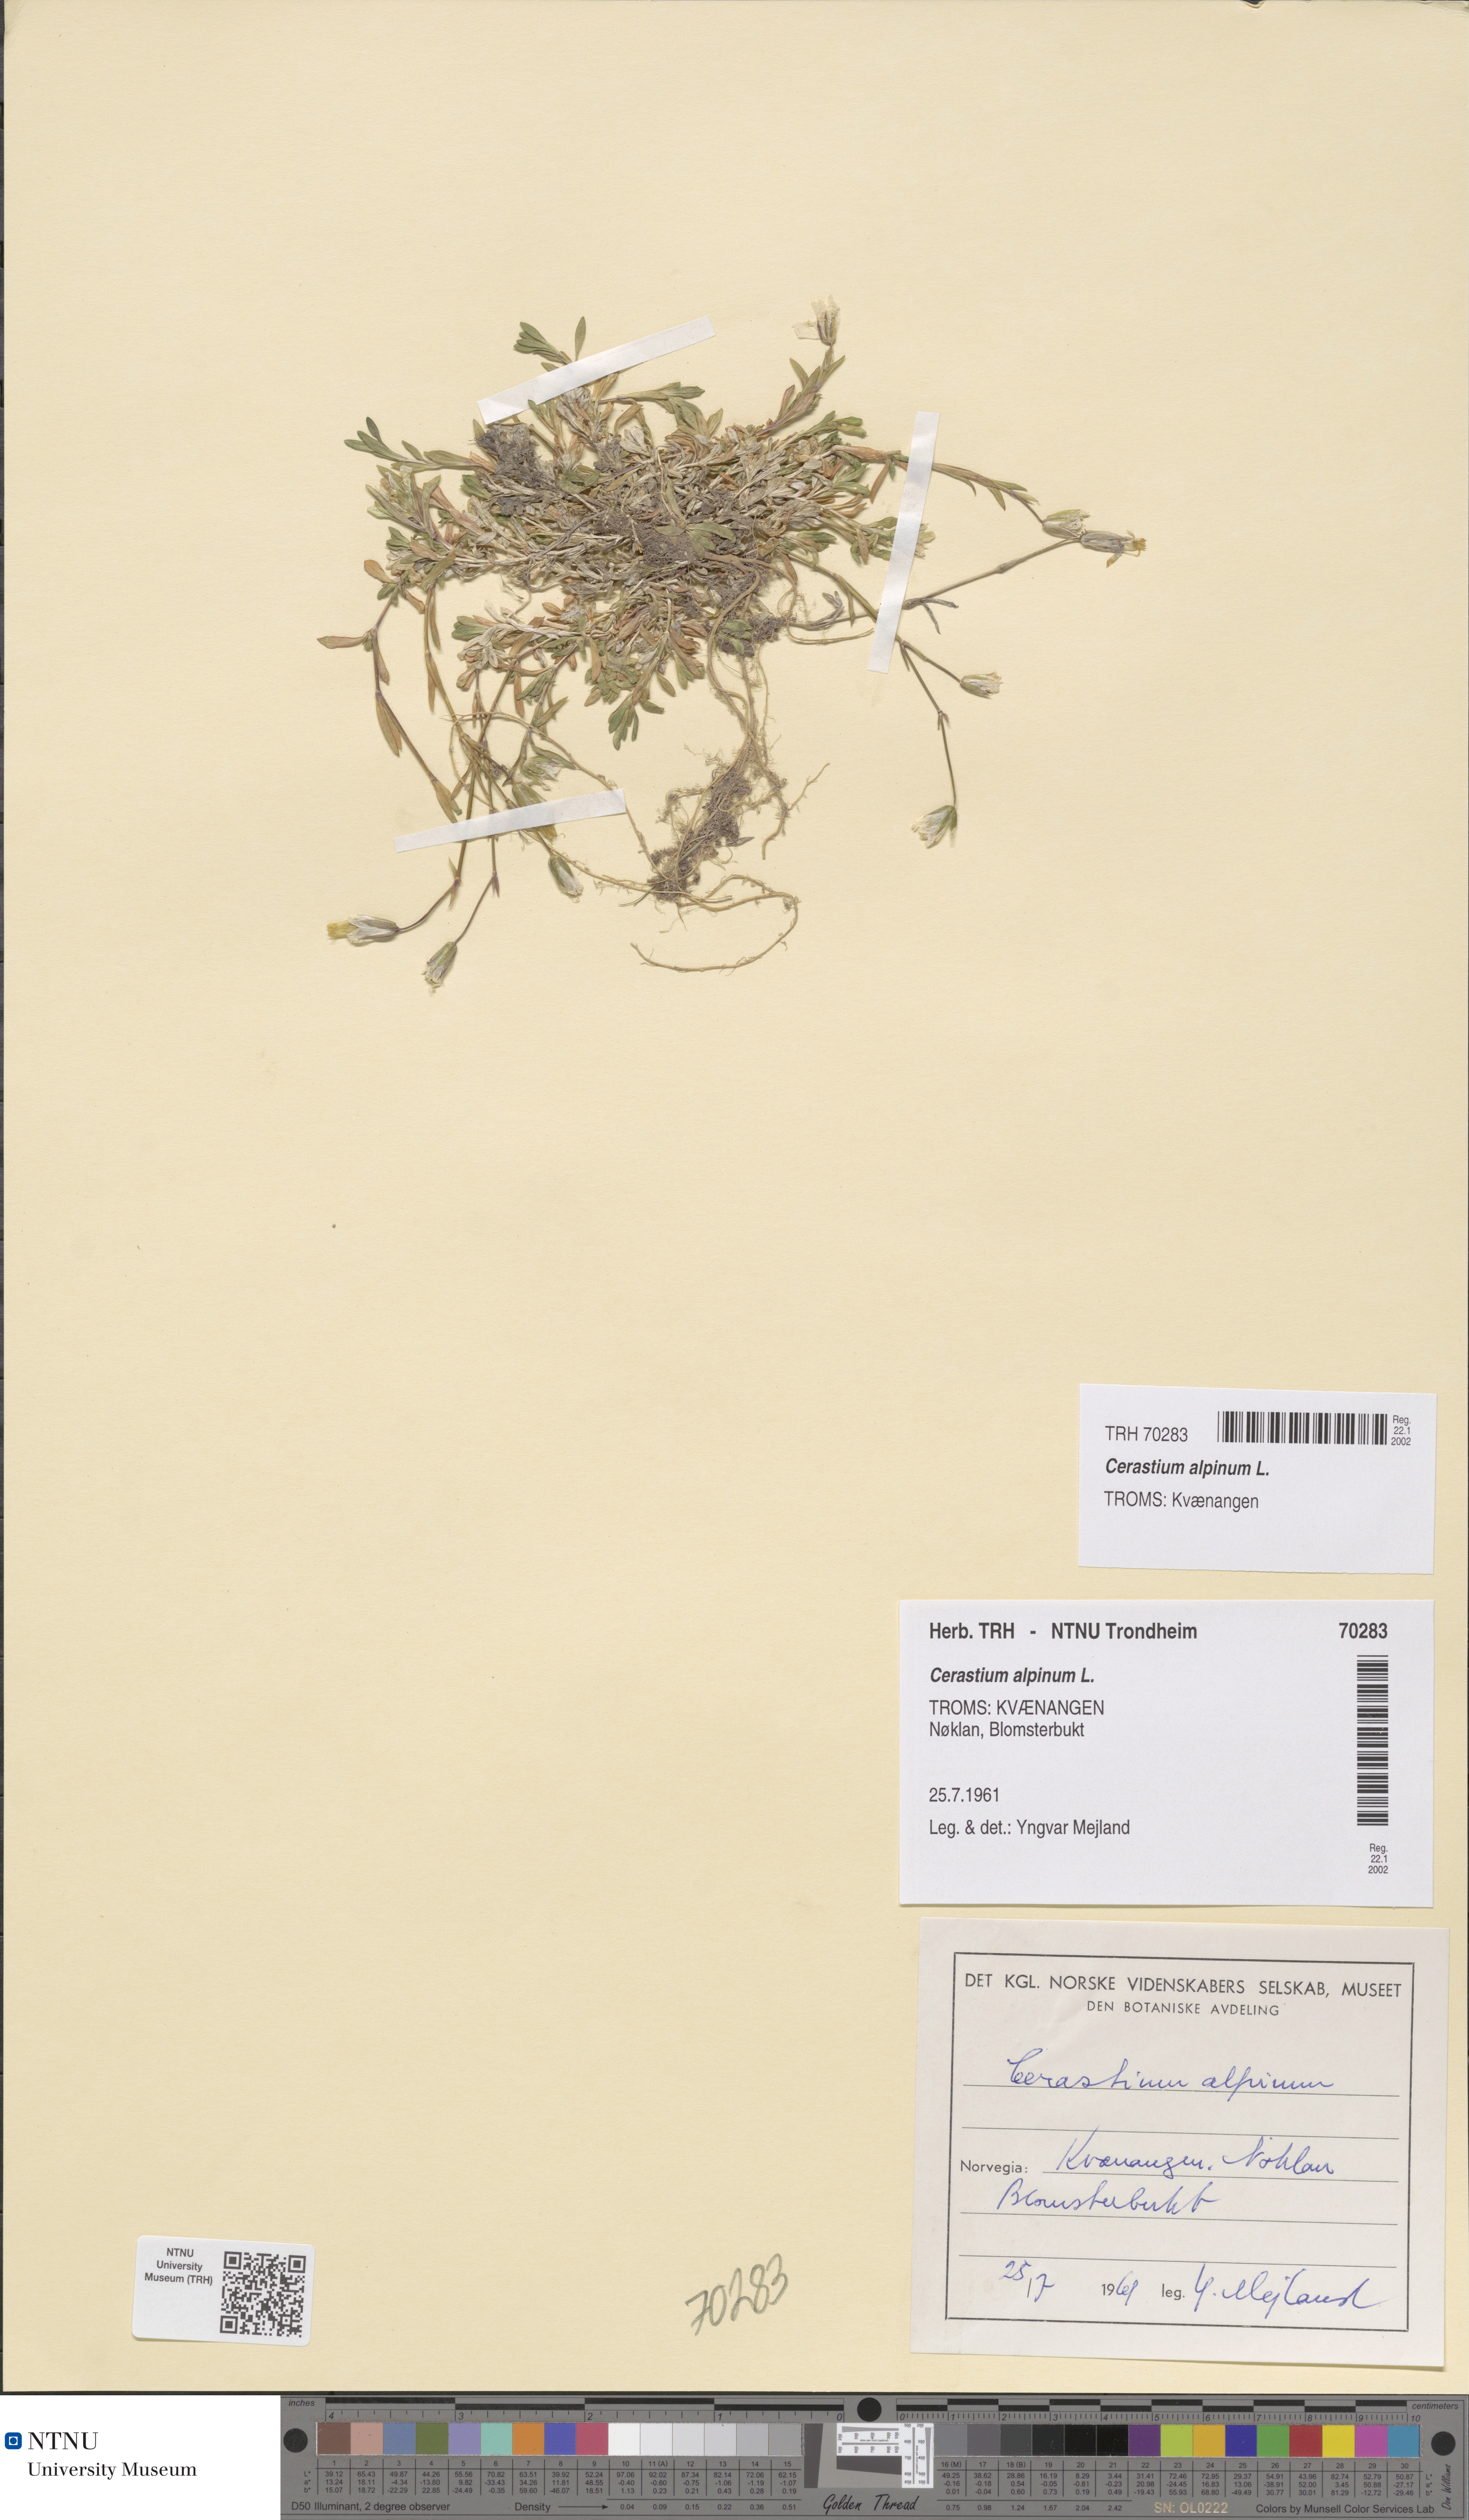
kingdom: Plantae
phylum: Tracheophyta
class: Magnoliopsida
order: Caryophyllales
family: Caryophyllaceae
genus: Cerastium
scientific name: Cerastium alpinum
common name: Alpine mouse-ear
